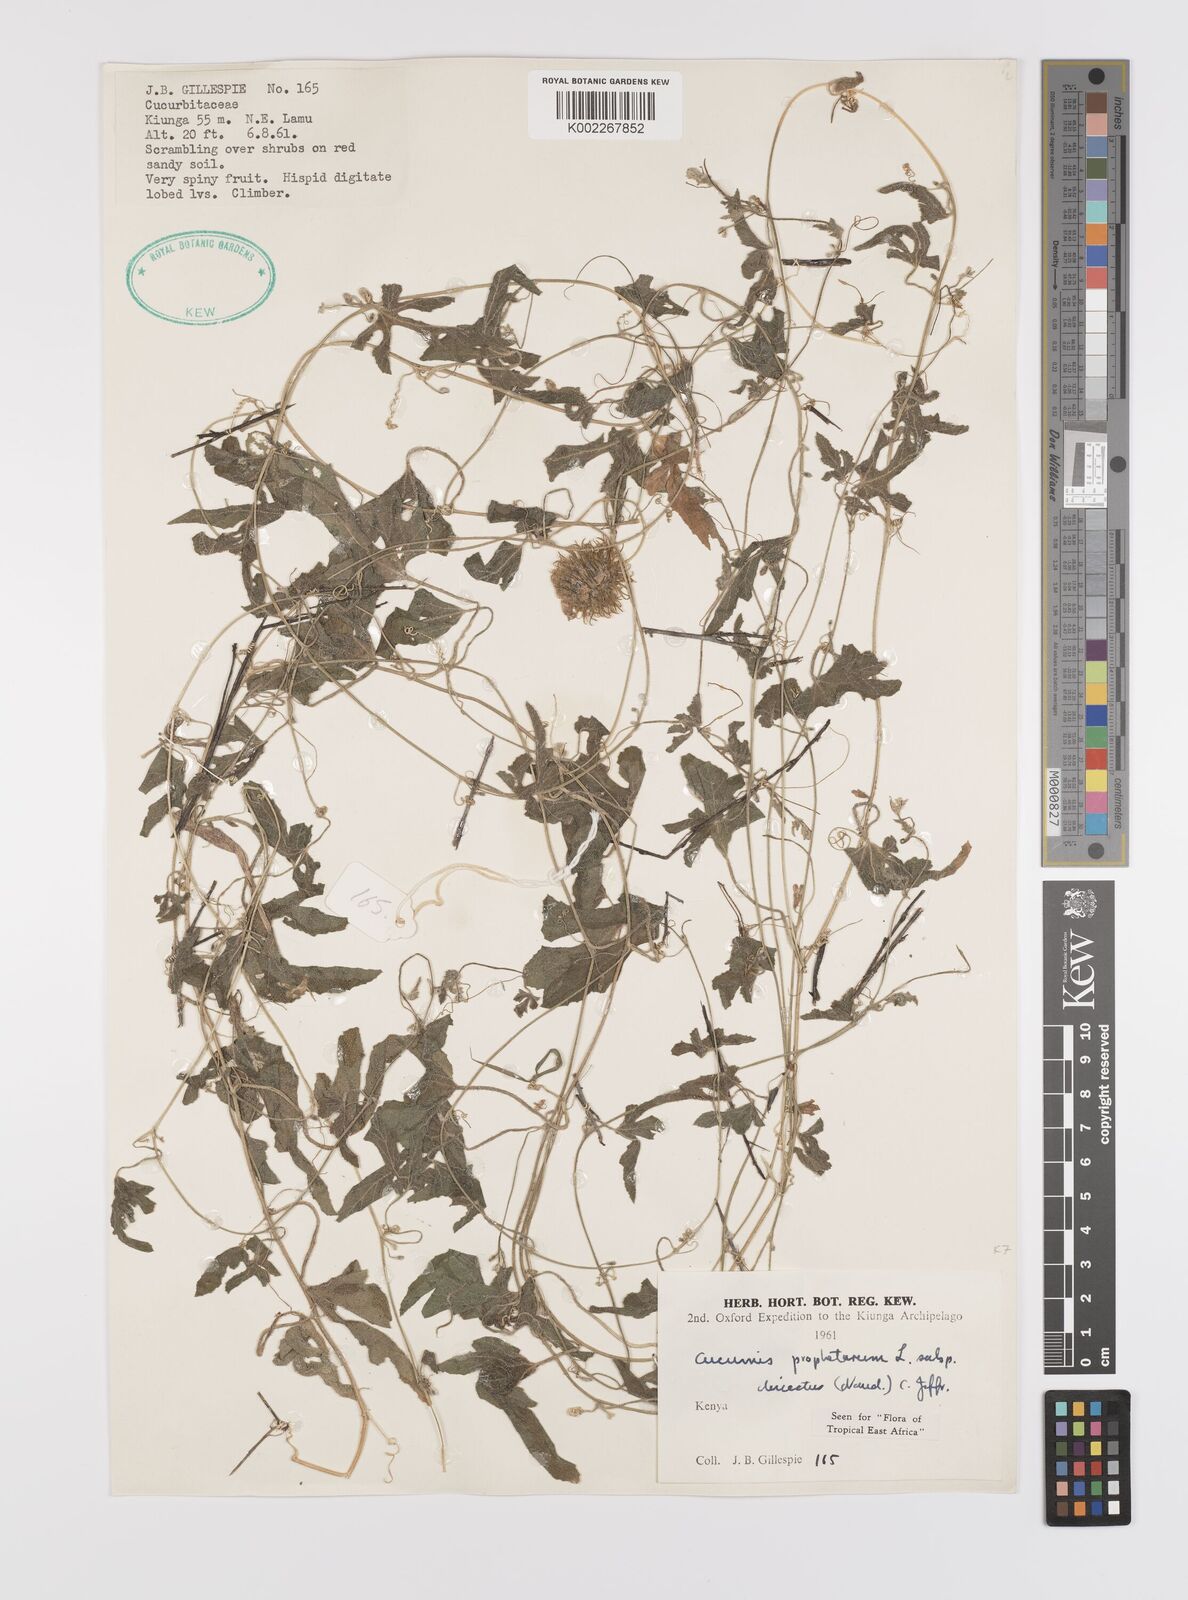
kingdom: Plantae
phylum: Tracheophyta
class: Magnoliopsida
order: Cucurbitales
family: Cucurbitaceae
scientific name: Cucurbitaceae
